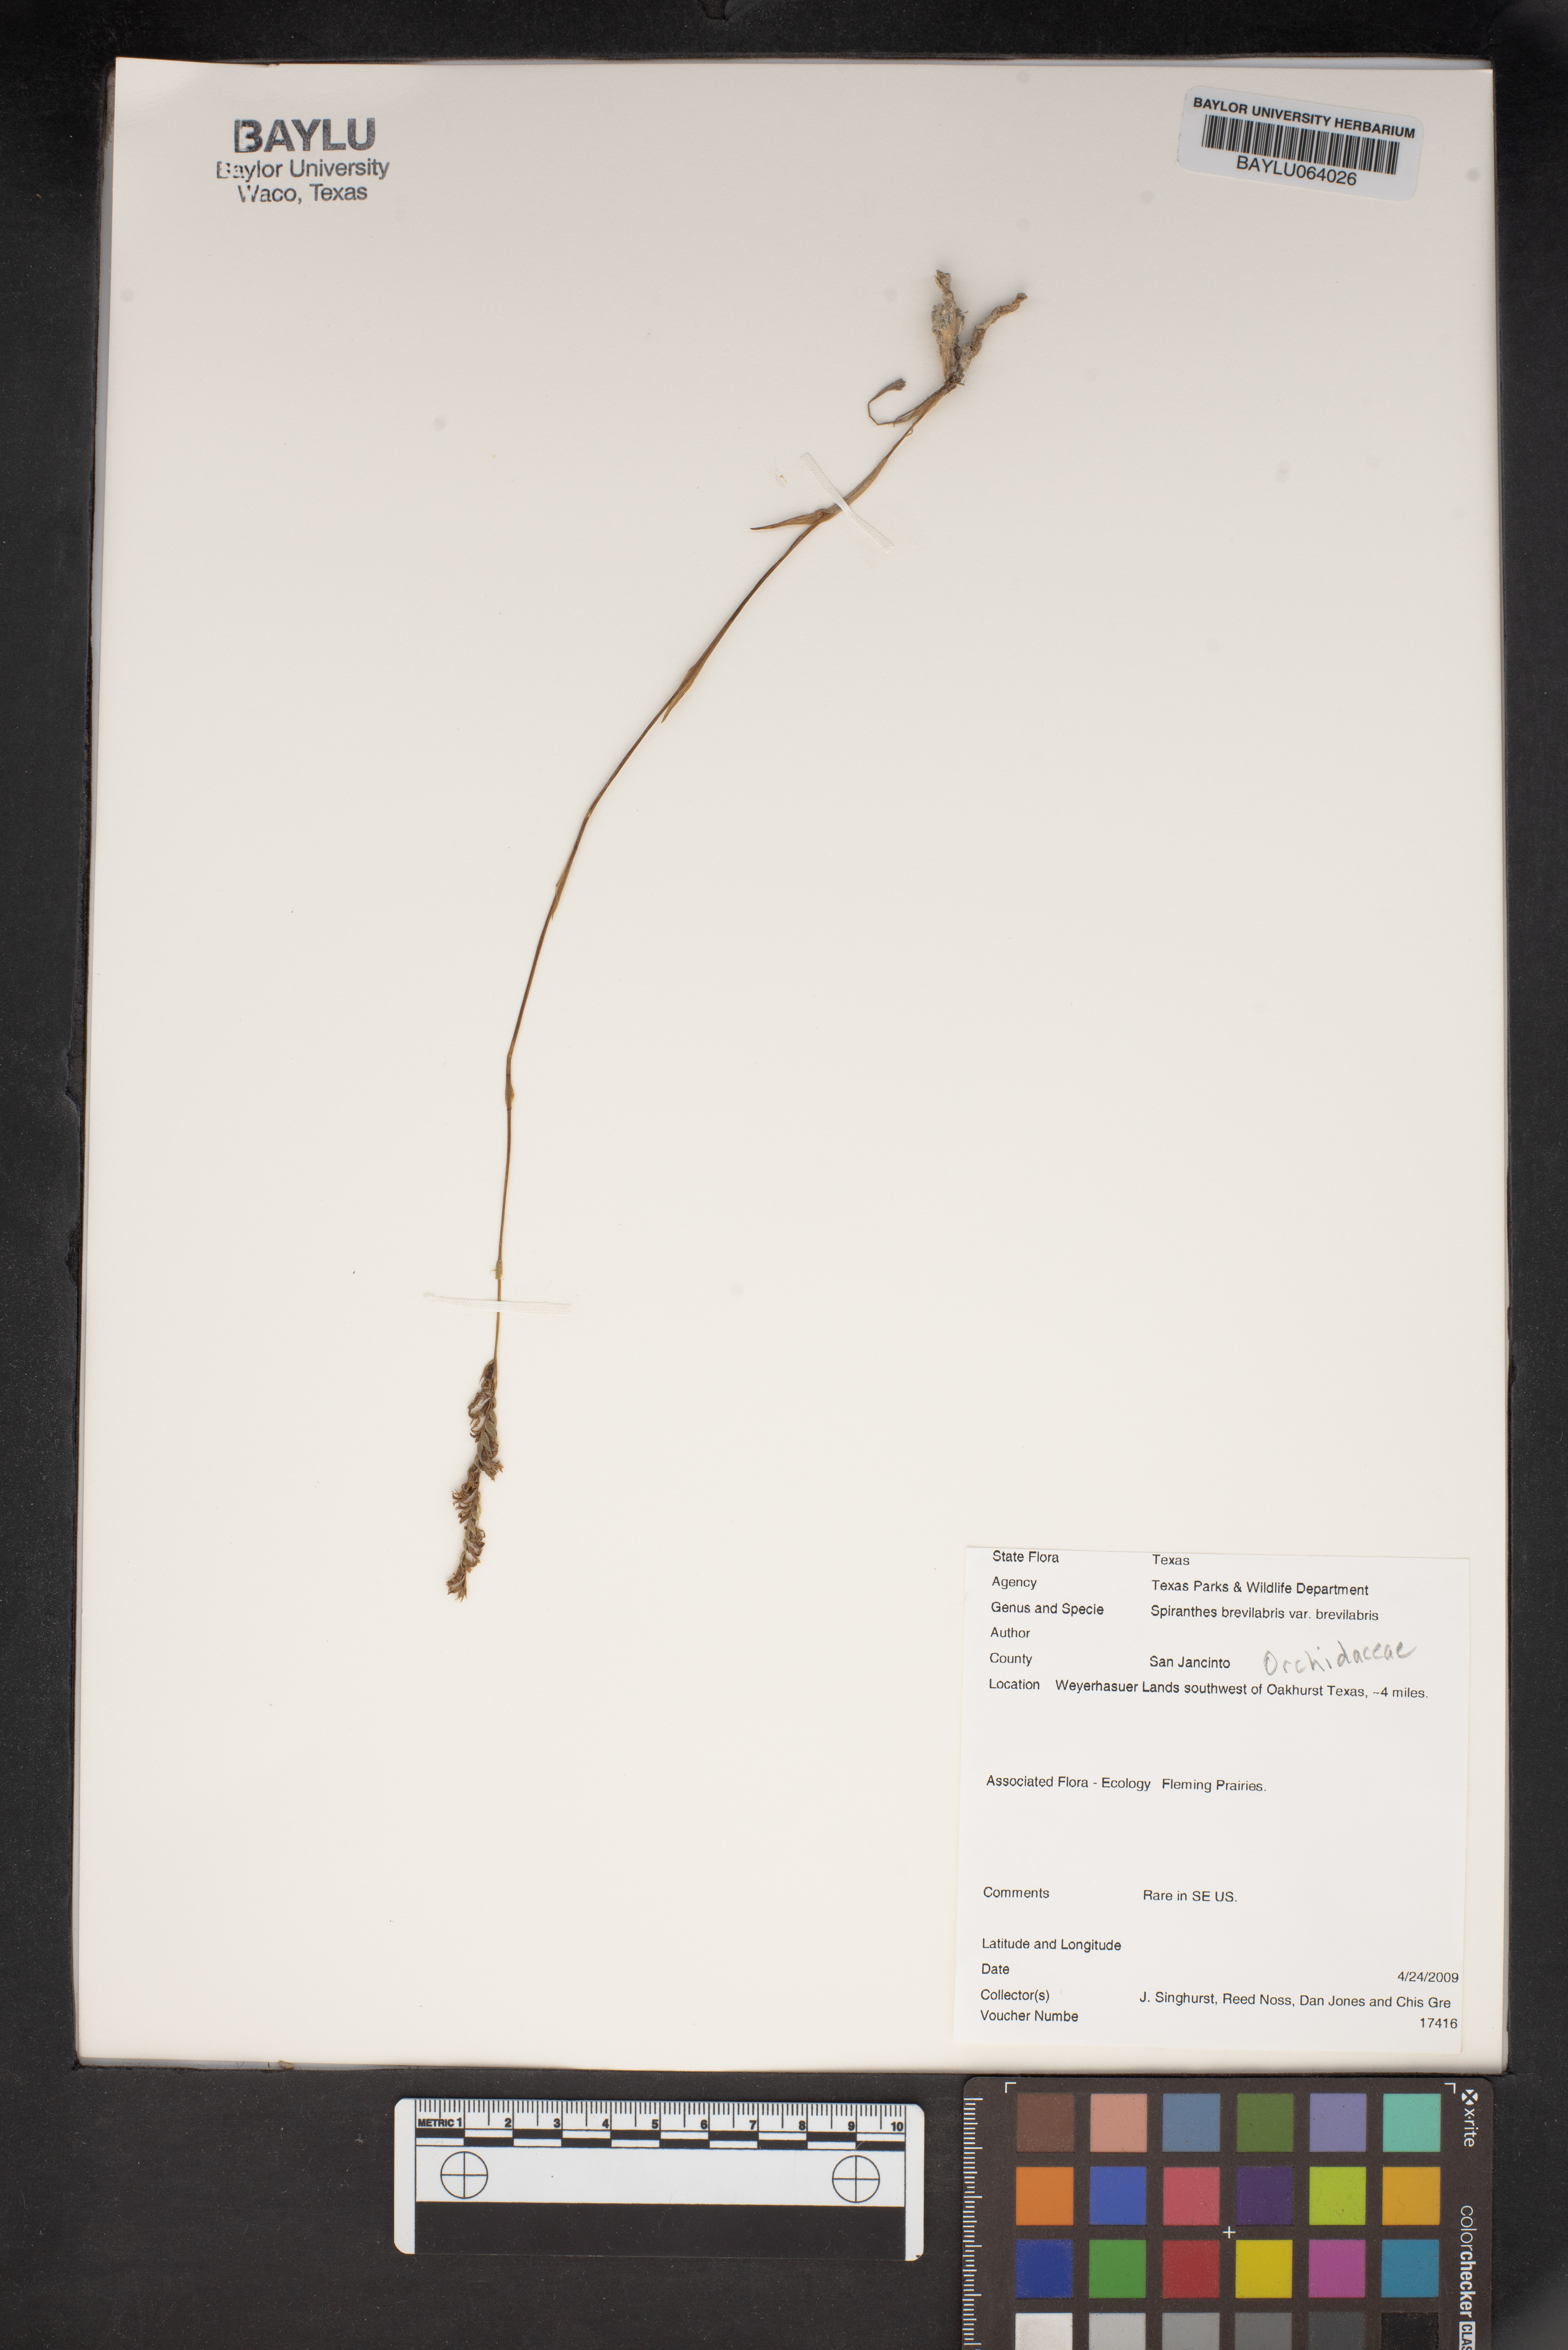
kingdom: Plantae
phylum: Tracheophyta
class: Liliopsida
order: Asparagales
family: Orchidaceae
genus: Spiranthes
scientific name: Spiranthes brevilabris
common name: Texas ladies'-tresses
